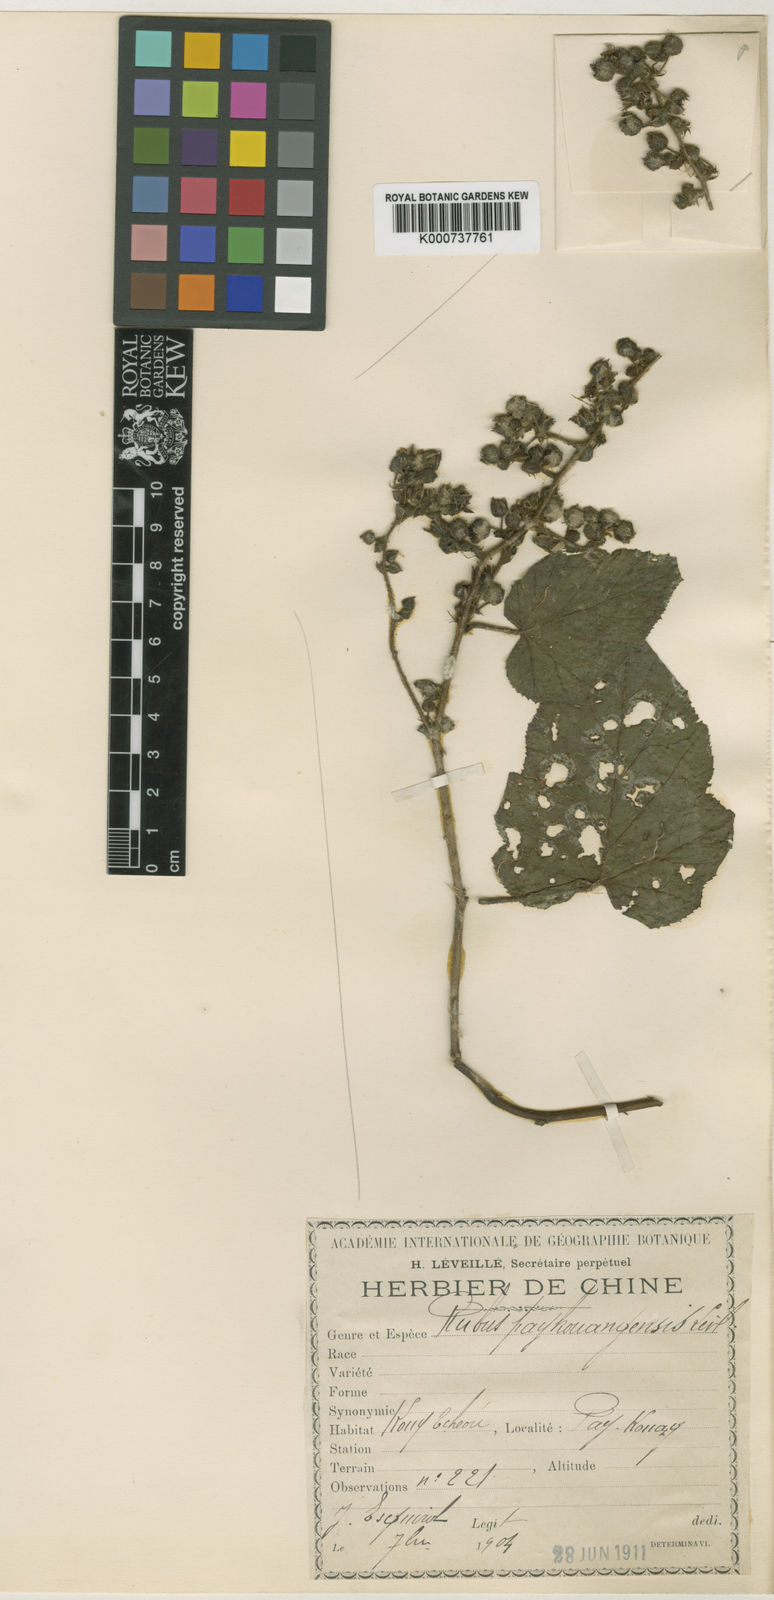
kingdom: Plantae
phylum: Tracheophyta
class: Magnoliopsida
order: Rosales
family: Rosaceae
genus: Rubus
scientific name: Rubus
